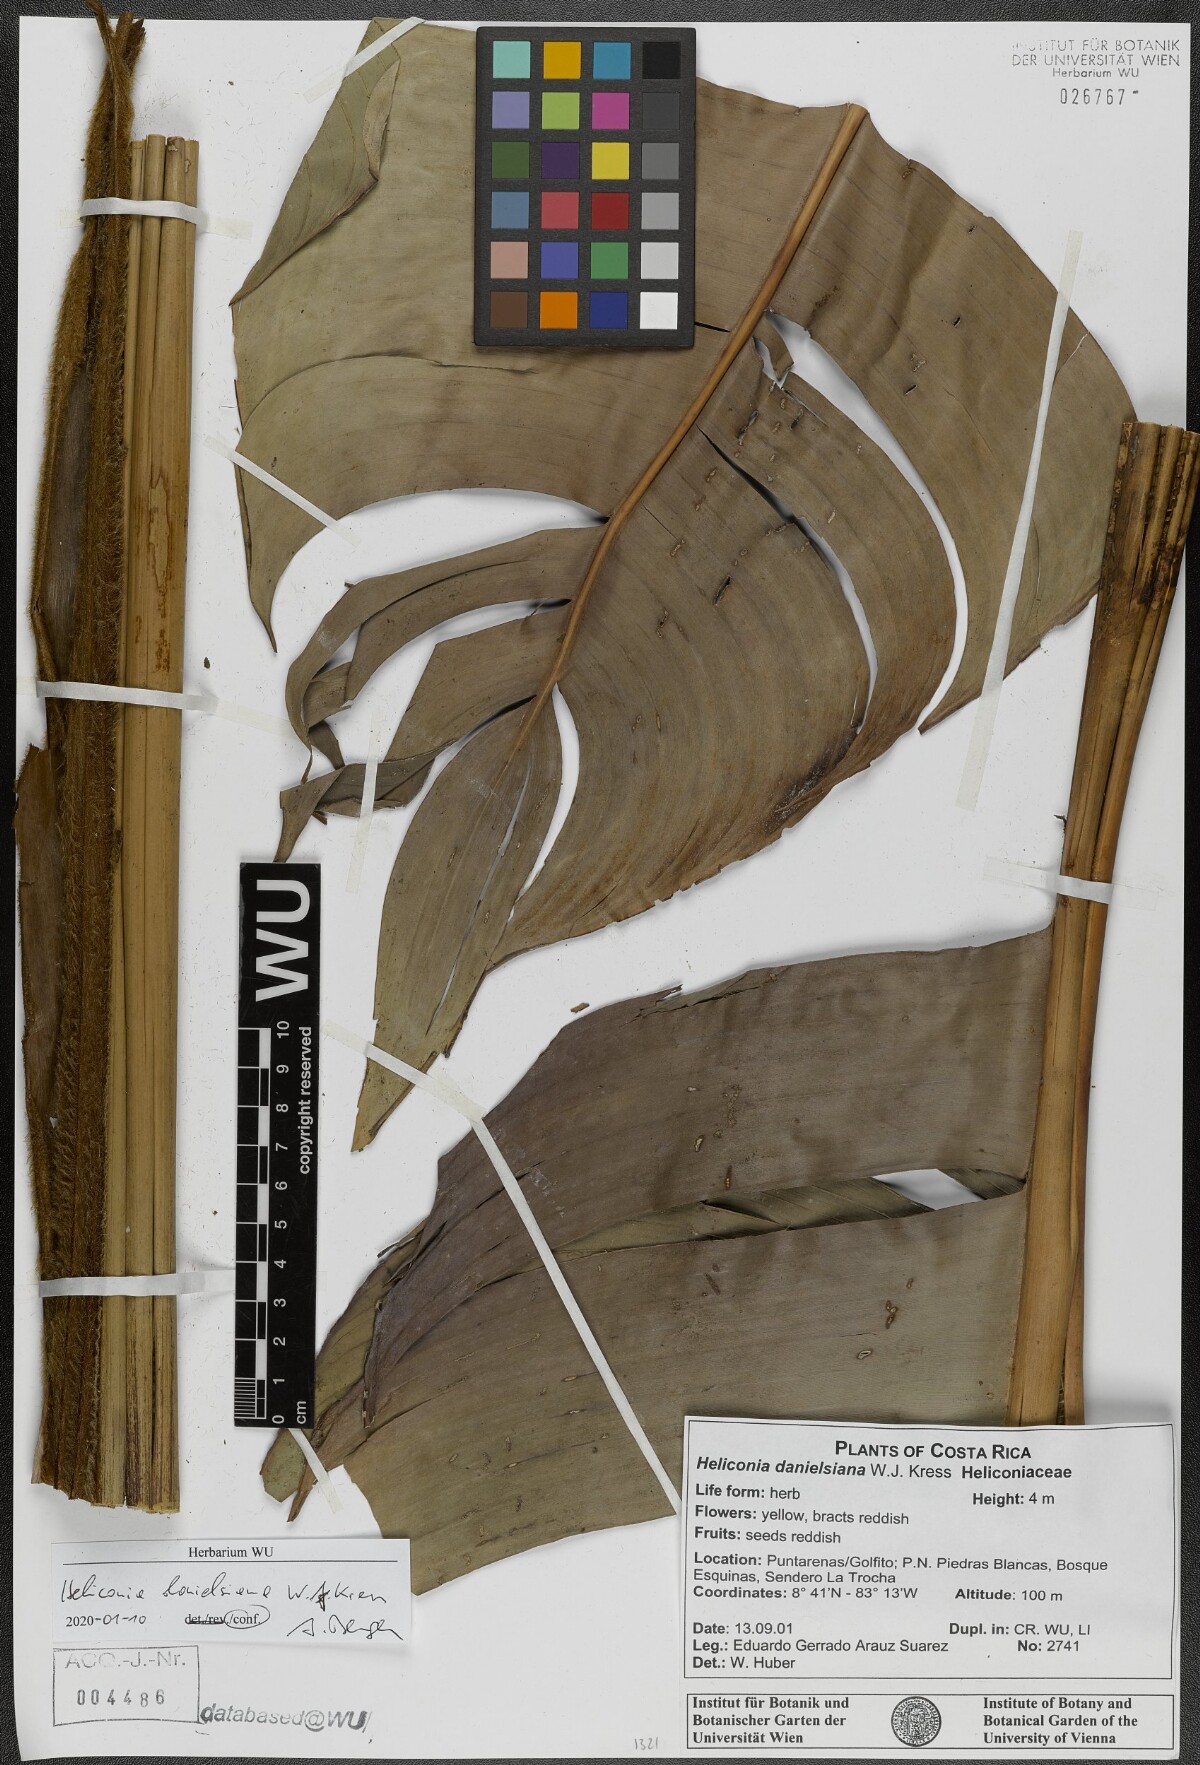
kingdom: Plantae
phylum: Tracheophyta
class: Liliopsida
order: Zingiberales
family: Heliconiaceae
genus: Heliconia
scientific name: Heliconia danielsiana
